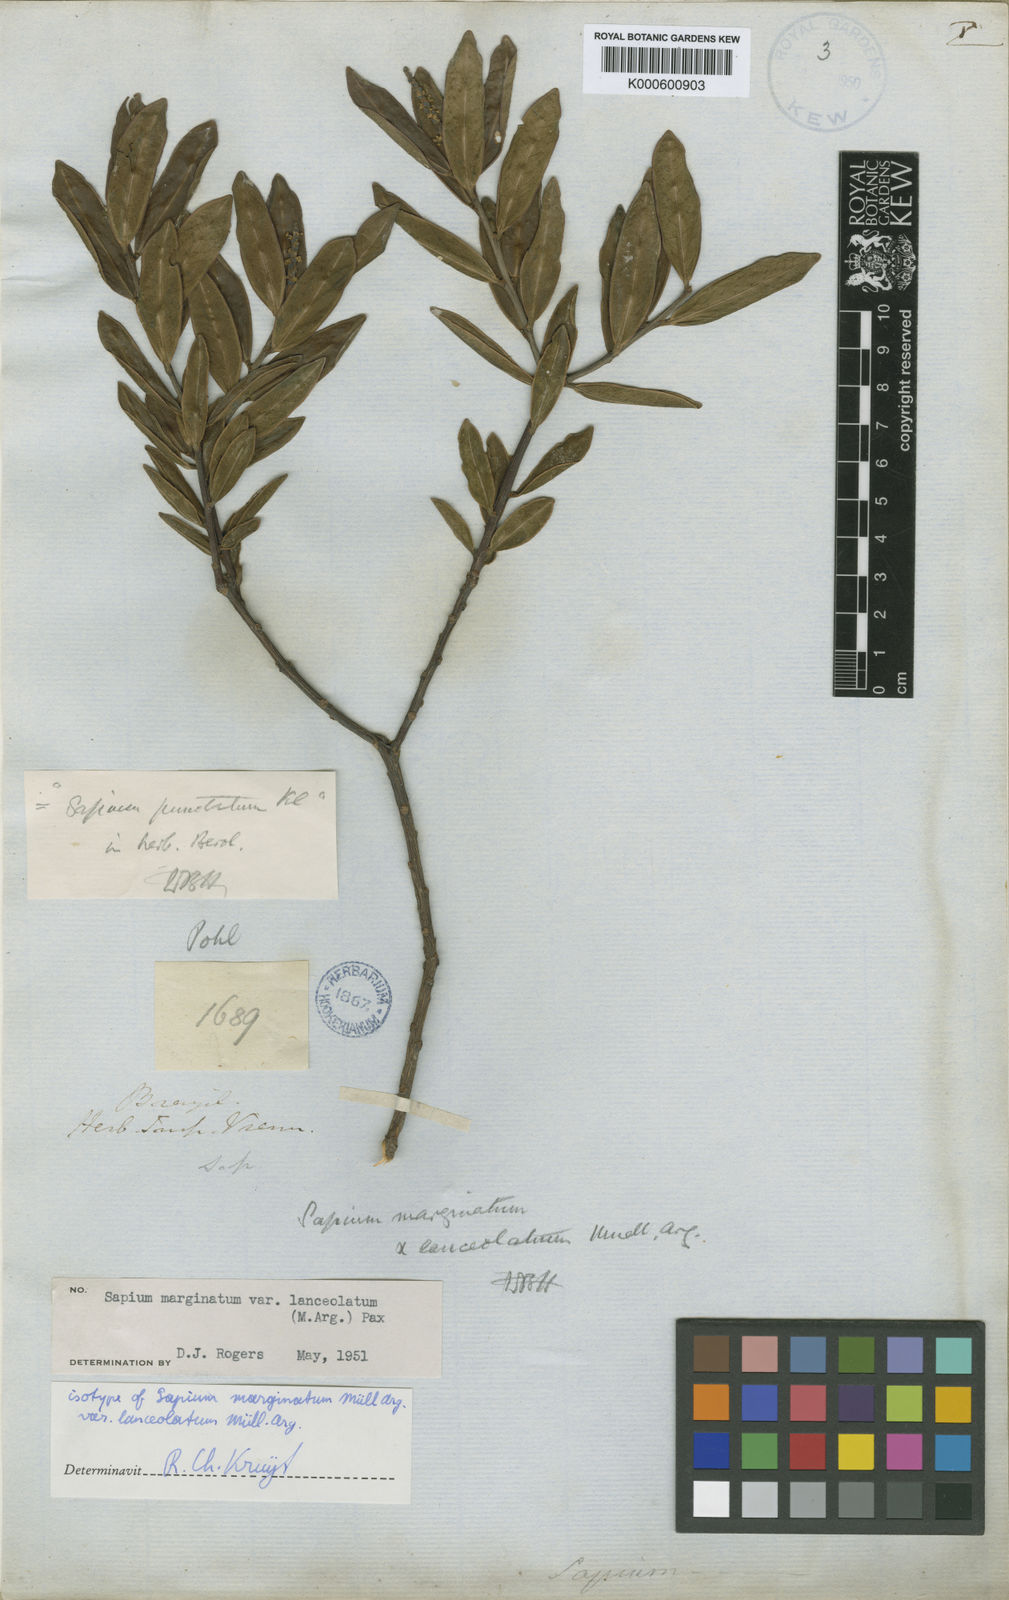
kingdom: Plantae
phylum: Tracheophyta
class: Magnoliopsida
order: Malpighiales
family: Euphorbiaceae
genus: Sapium
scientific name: Sapium glandulosum
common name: Milktree
